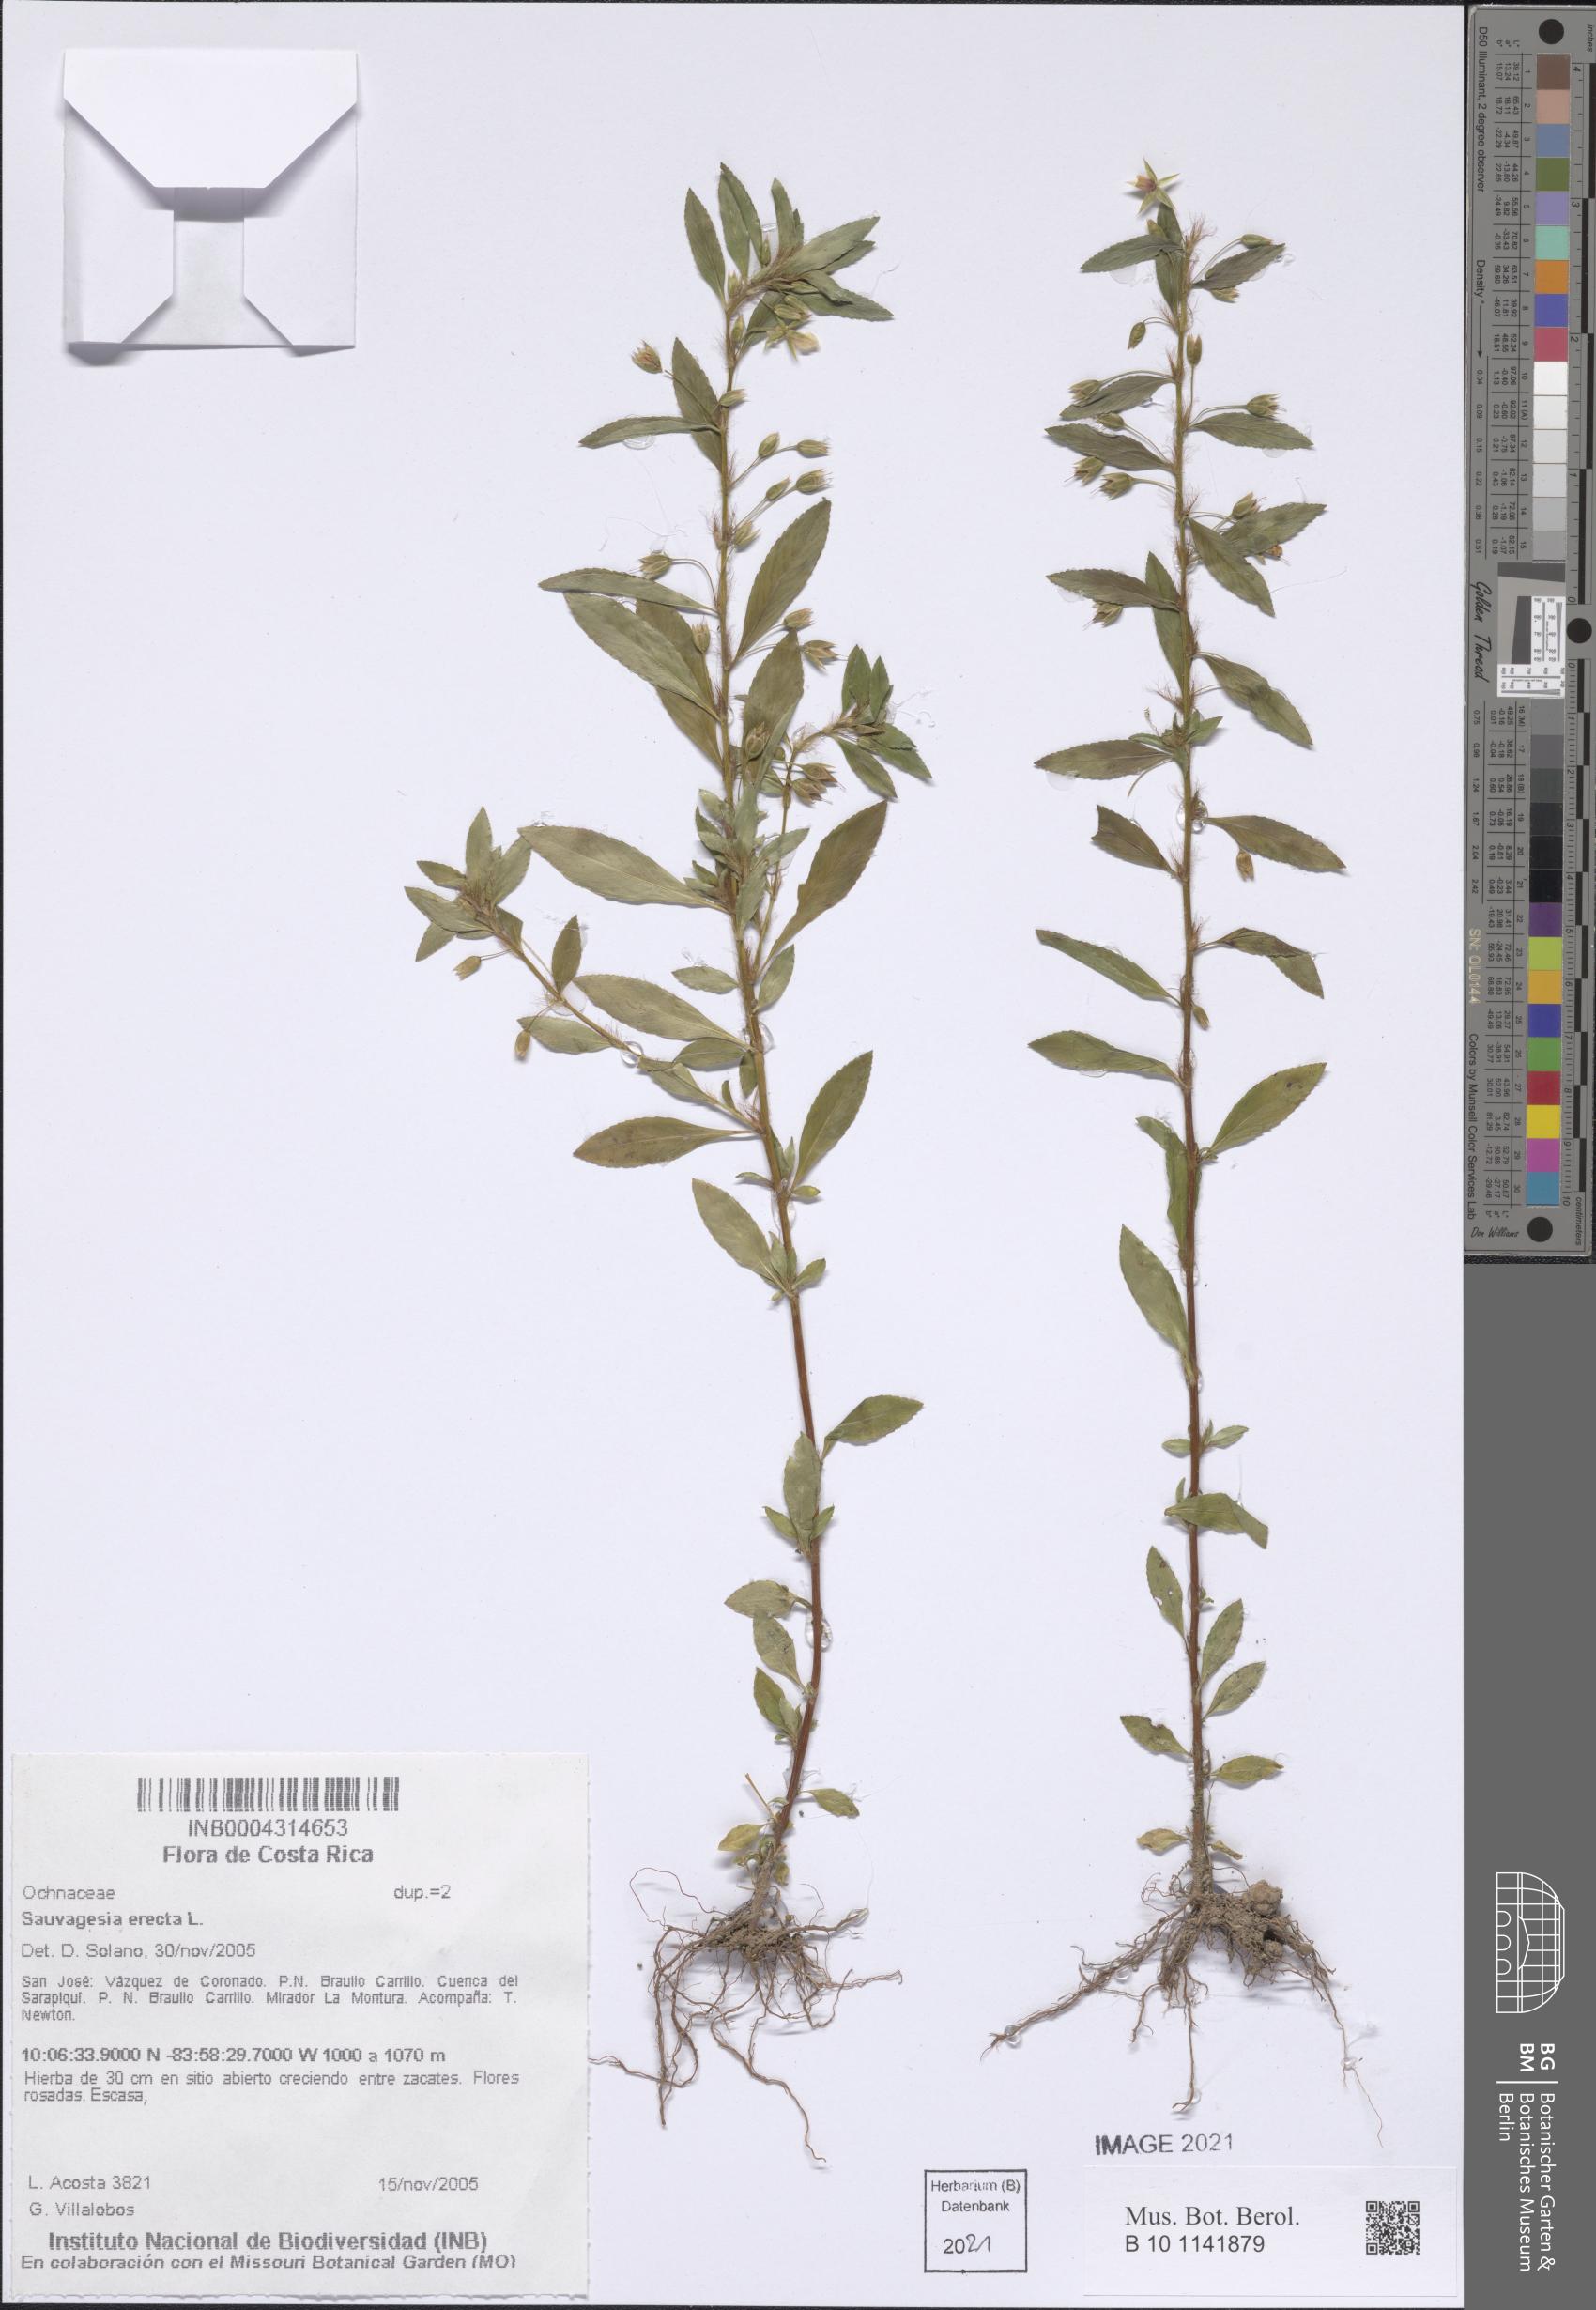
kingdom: Plantae
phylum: Tracheophyta
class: Magnoliopsida
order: Malpighiales
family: Ochnaceae
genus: Sauvagesia
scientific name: Sauvagesia erecta
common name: Creole tea
